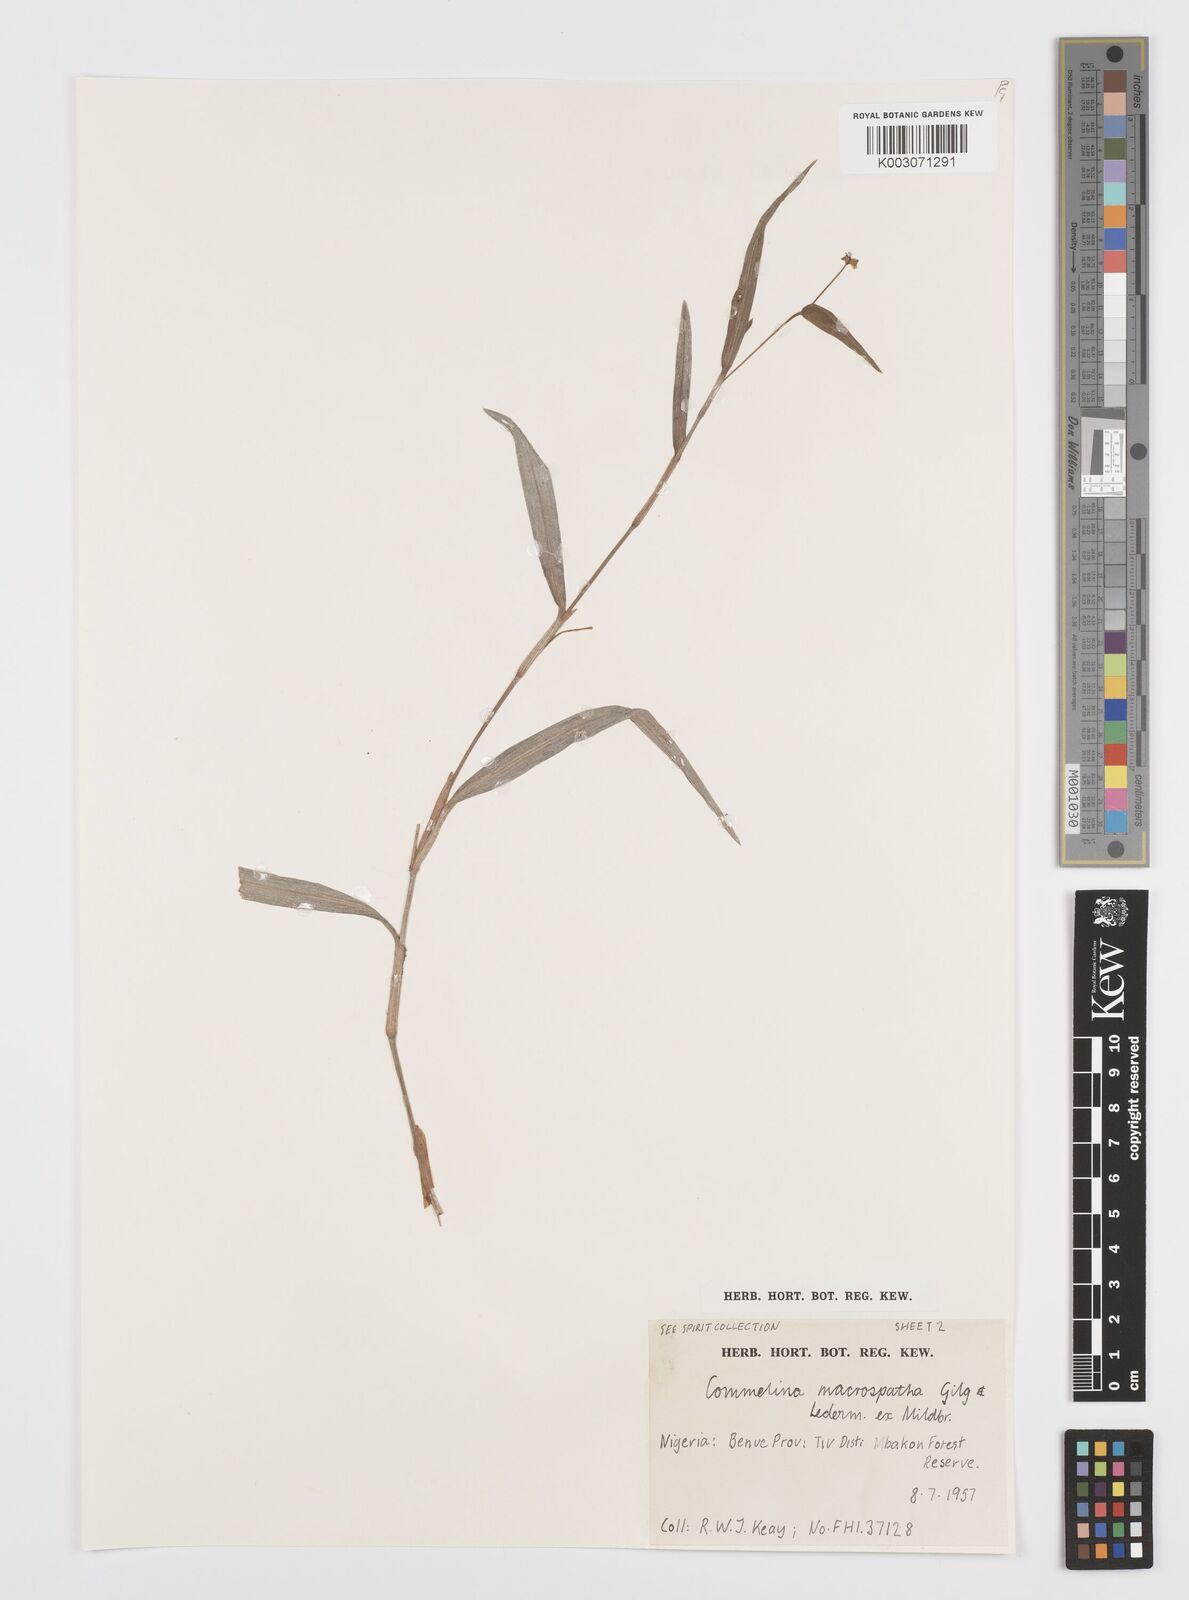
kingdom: Plantae
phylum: Tracheophyta
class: Liliopsida
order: Commelinales
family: Commelinaceae
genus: Commelina
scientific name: Commelina macrospatha
